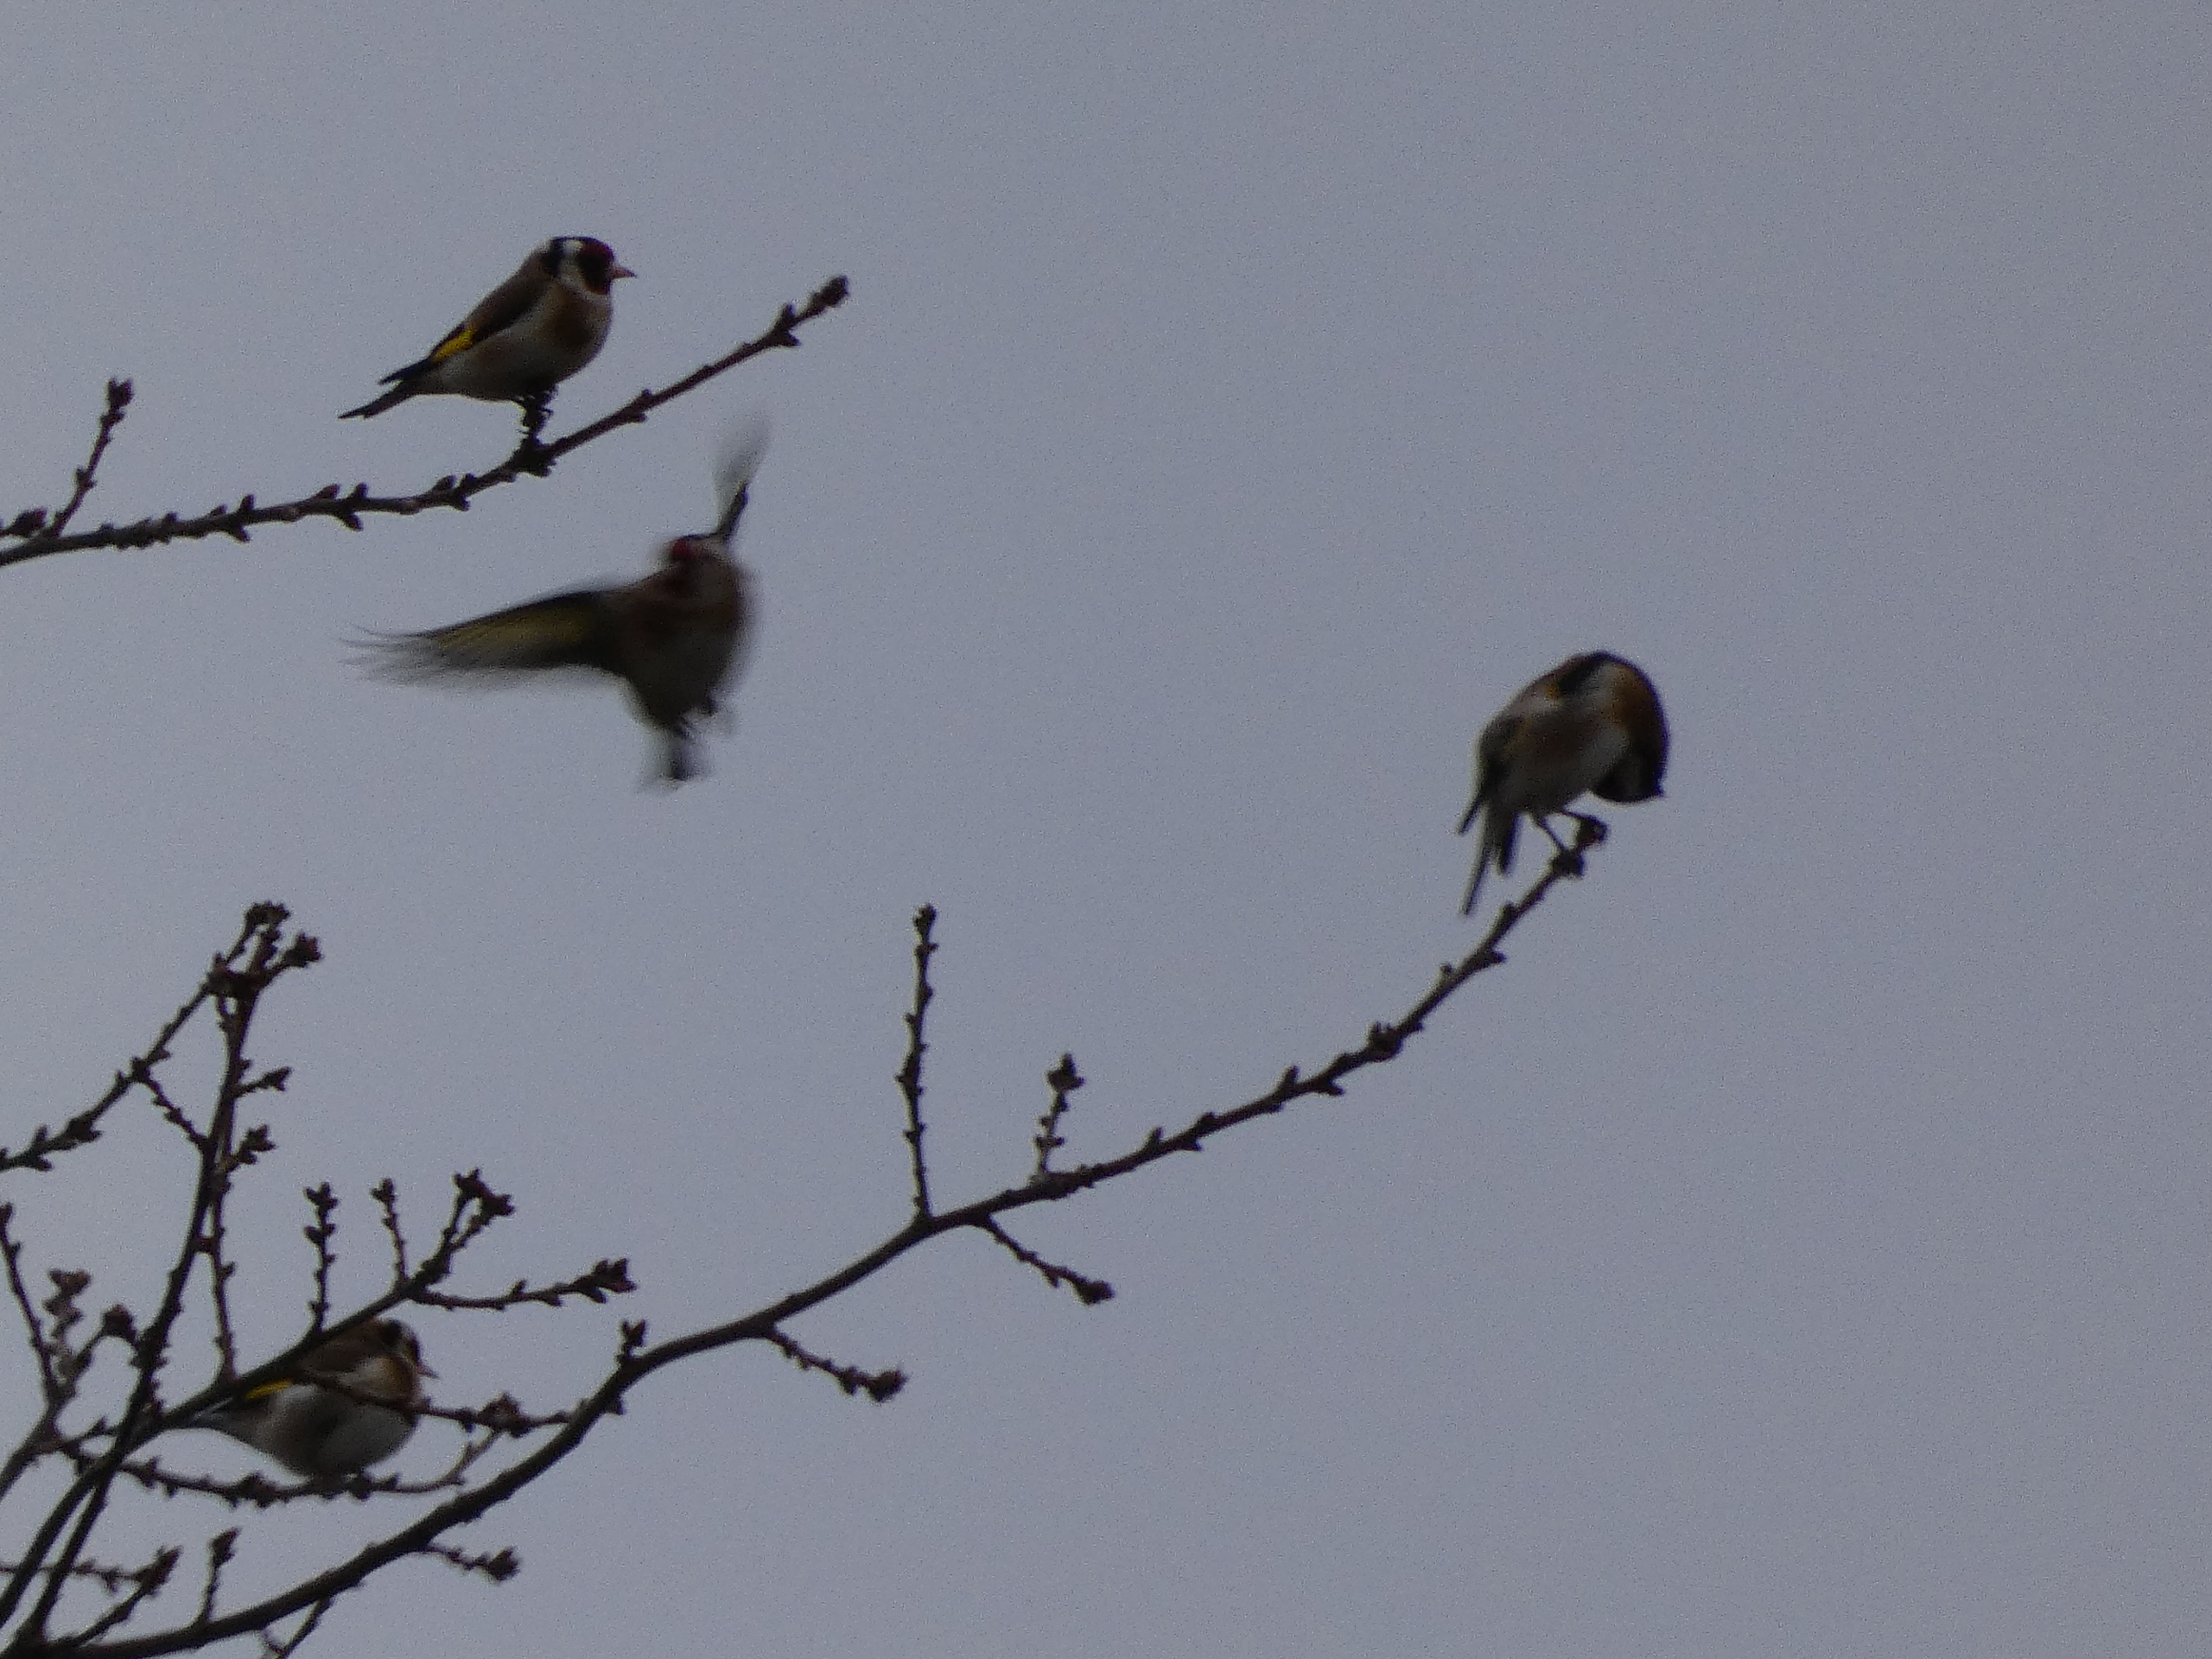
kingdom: Animalia
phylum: Chordata
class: Aves
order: Passeriformes
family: Fringillidae
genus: Carduelis
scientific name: Carduelis carduelis
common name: Stillits
